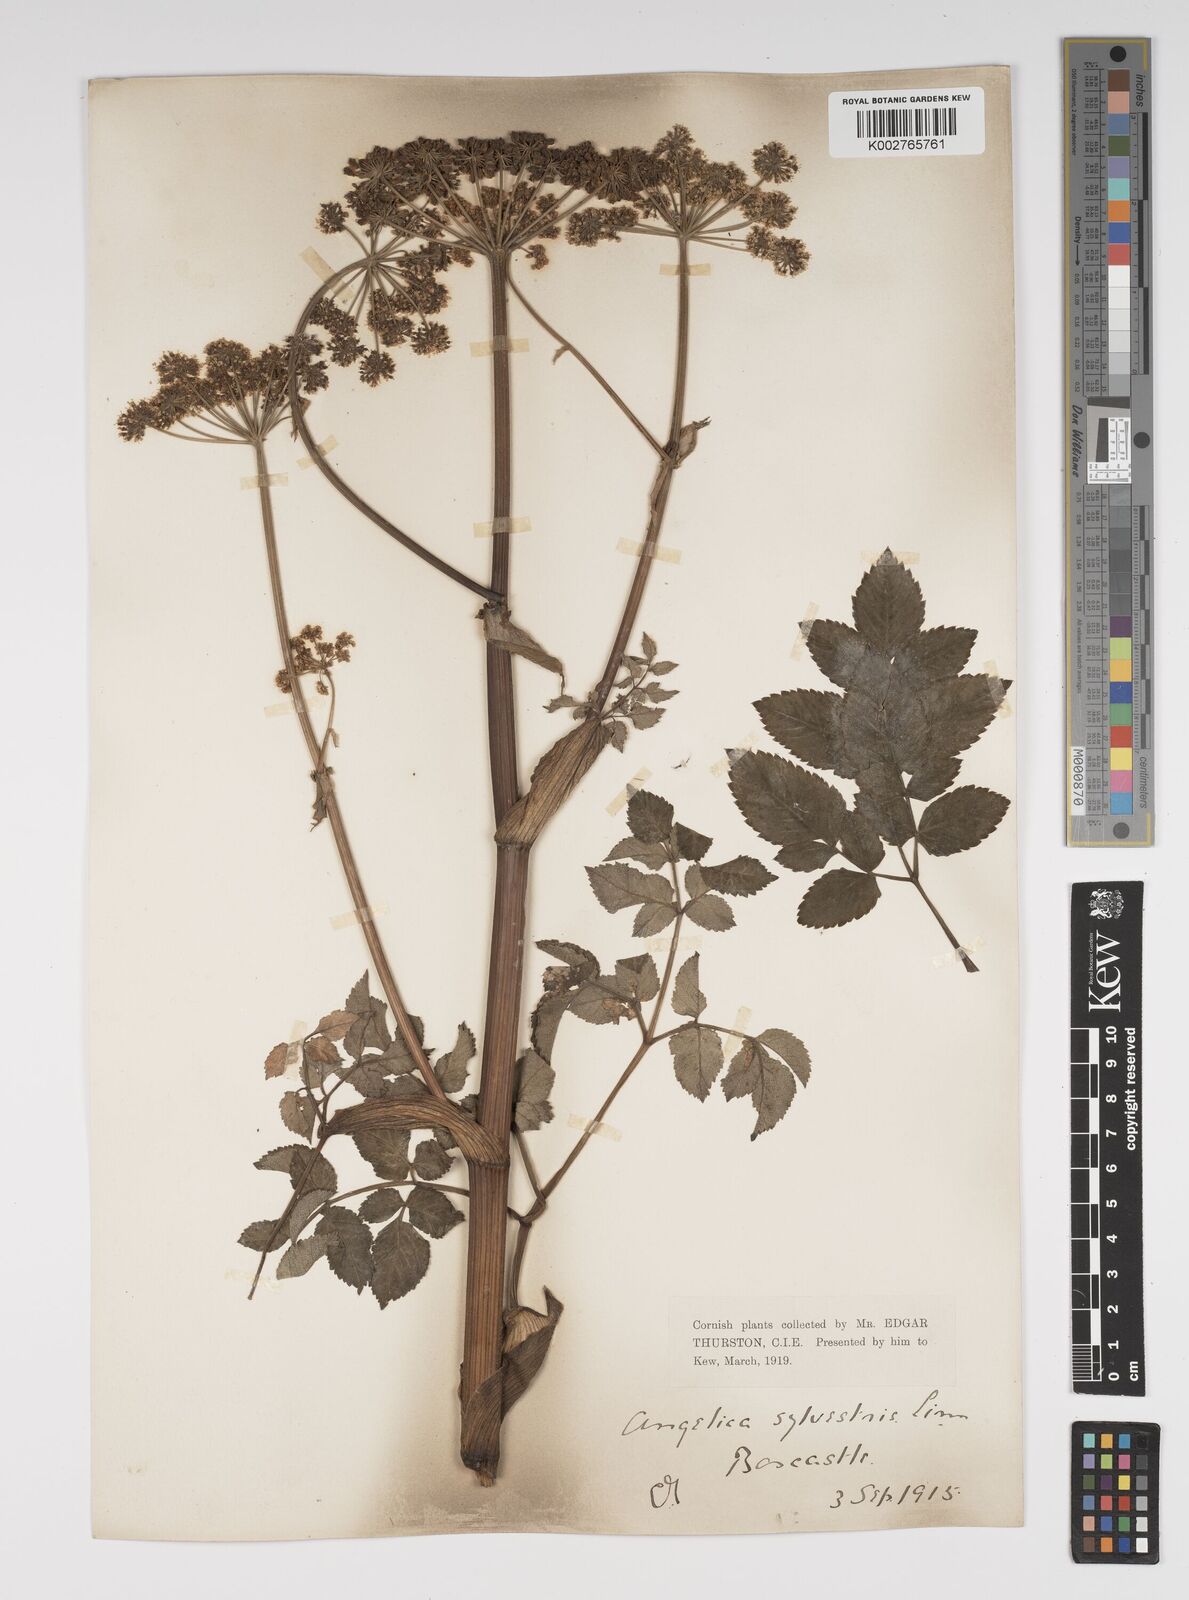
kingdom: Plantae
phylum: Tracheophyta
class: Magnoliopsida
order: Apiales
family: Apiaceae
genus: Angelica
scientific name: Angelica sylvestris
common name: Wild angelica
